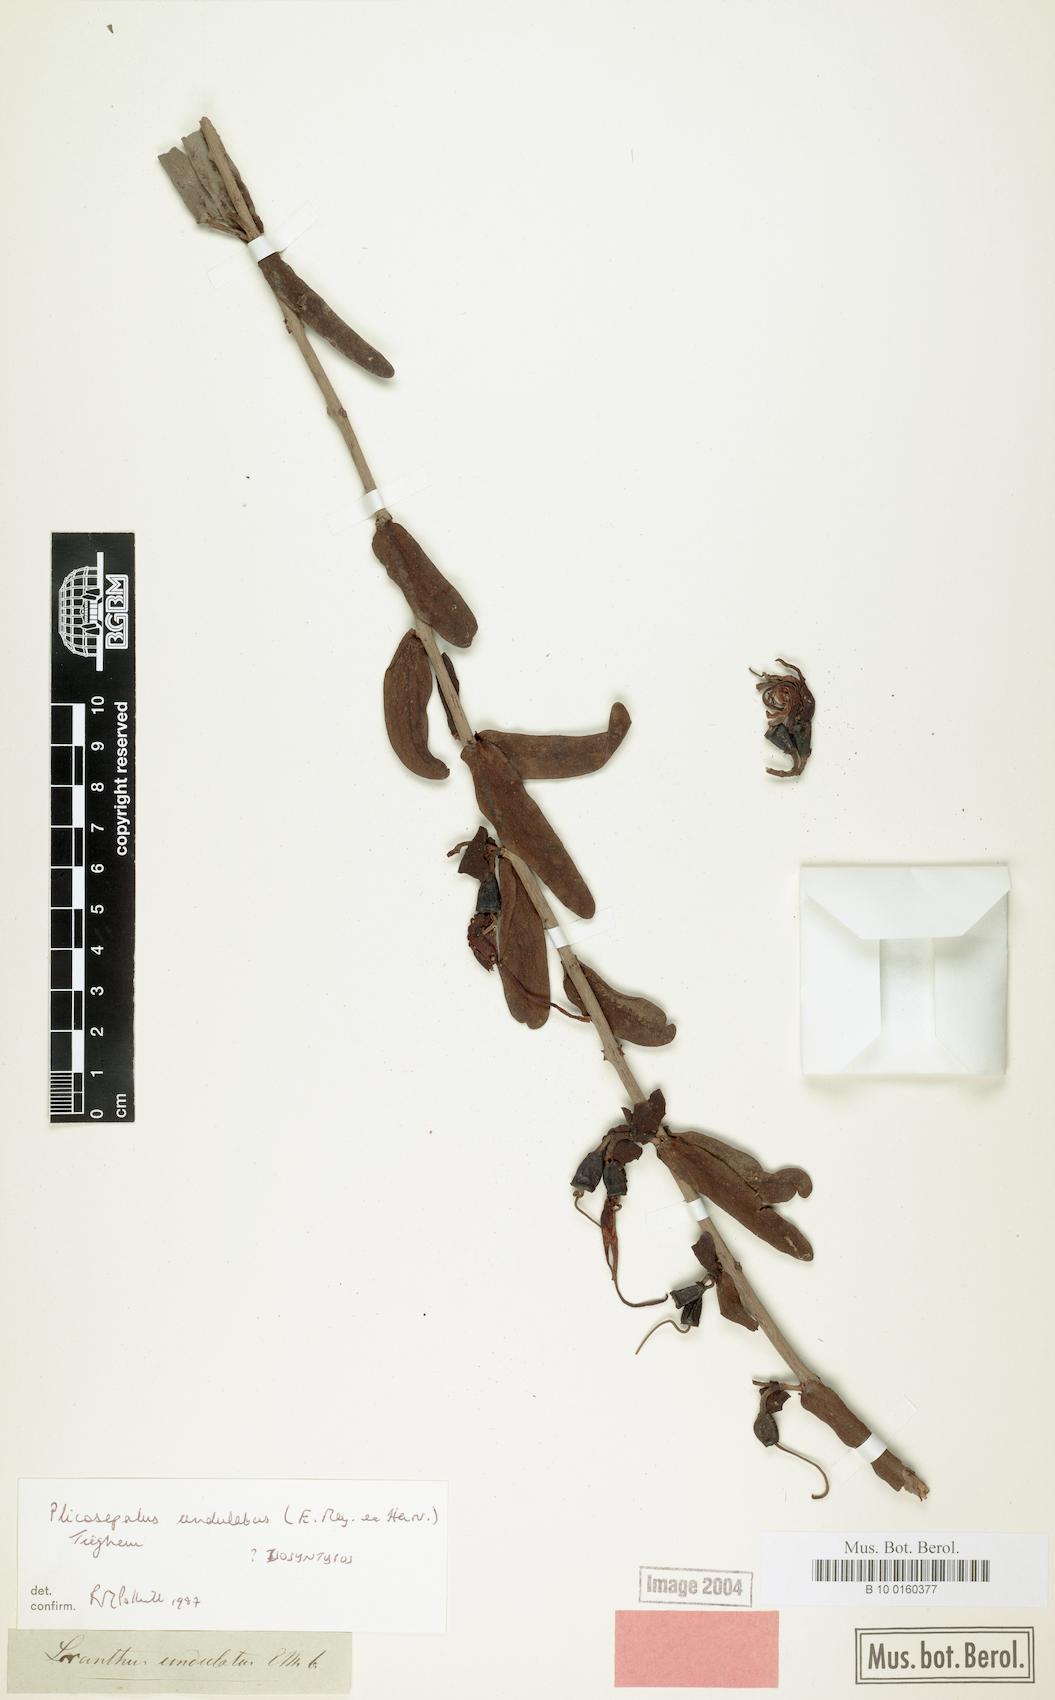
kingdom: Plantae
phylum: Tracheophyta
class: Magnoliopsida
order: Santalales
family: Loranthaceae
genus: Plicosepalus
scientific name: Plicosepalus undulatus
